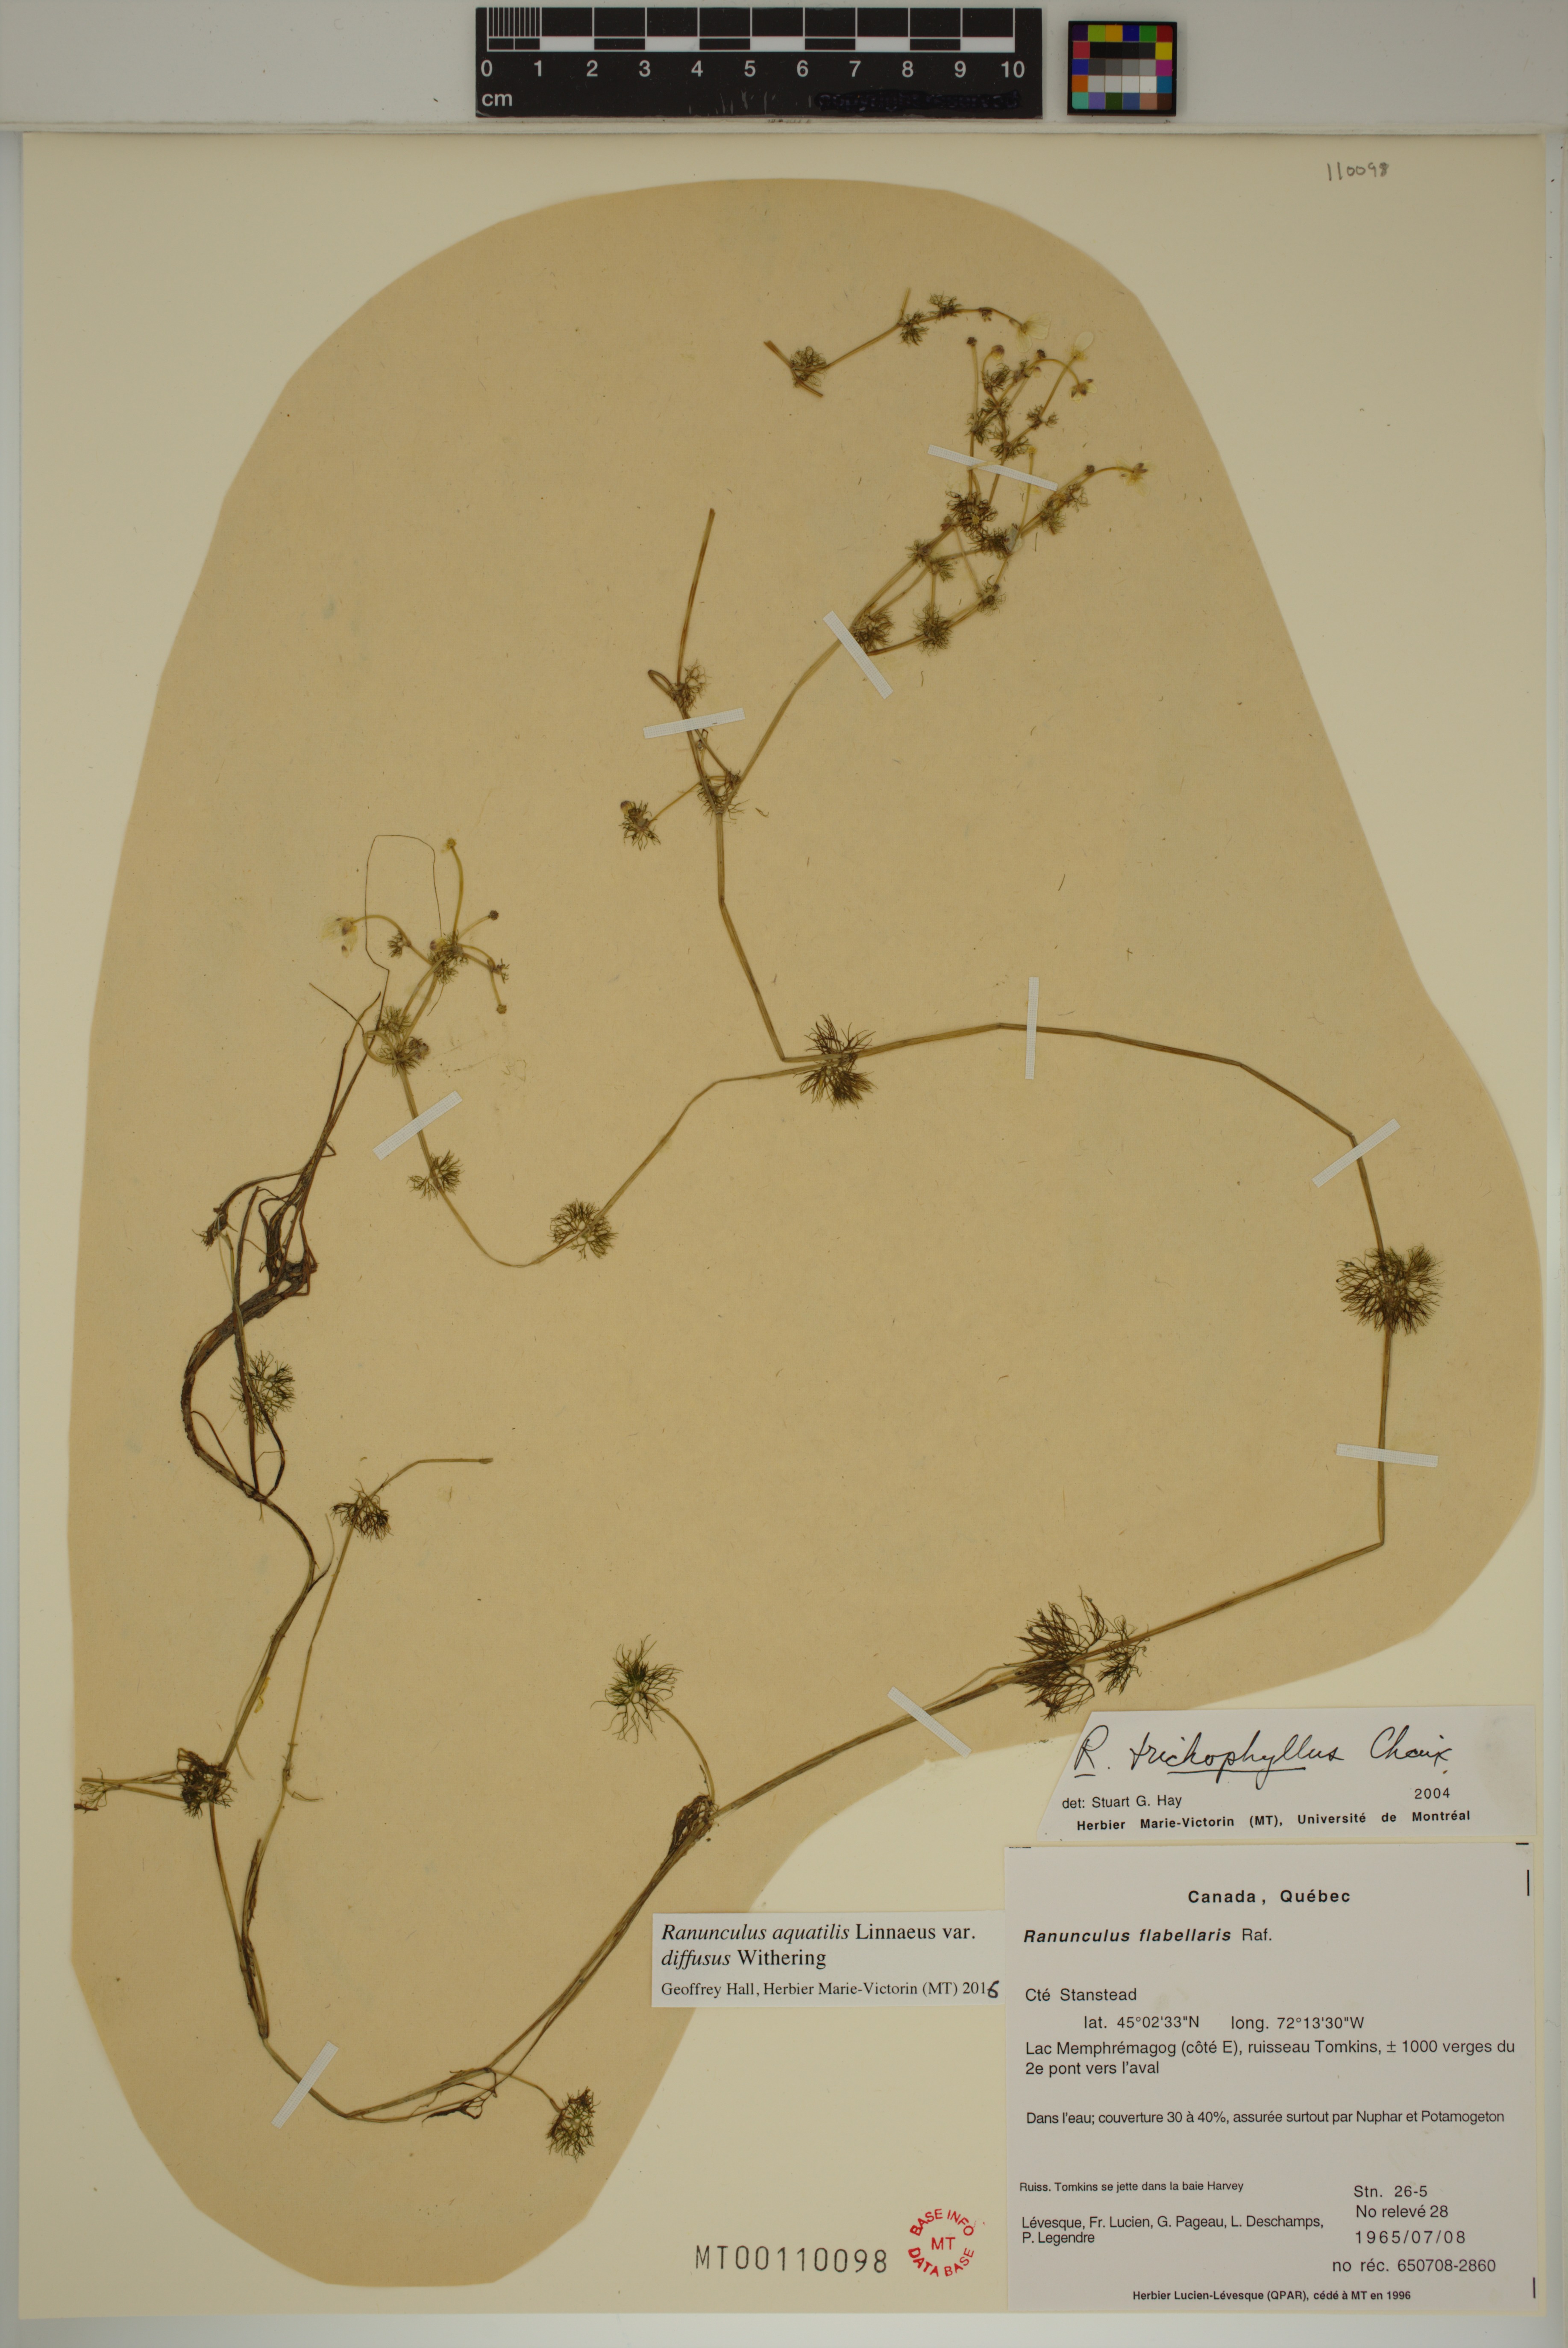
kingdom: Plantae
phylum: Tracheophyta
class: Magnoliopsida
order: Ranunculales
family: Ranunculaceae
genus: Ranunculus
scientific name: Ranunculus trichophyllus
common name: Thread-leaved water-crowfoot
